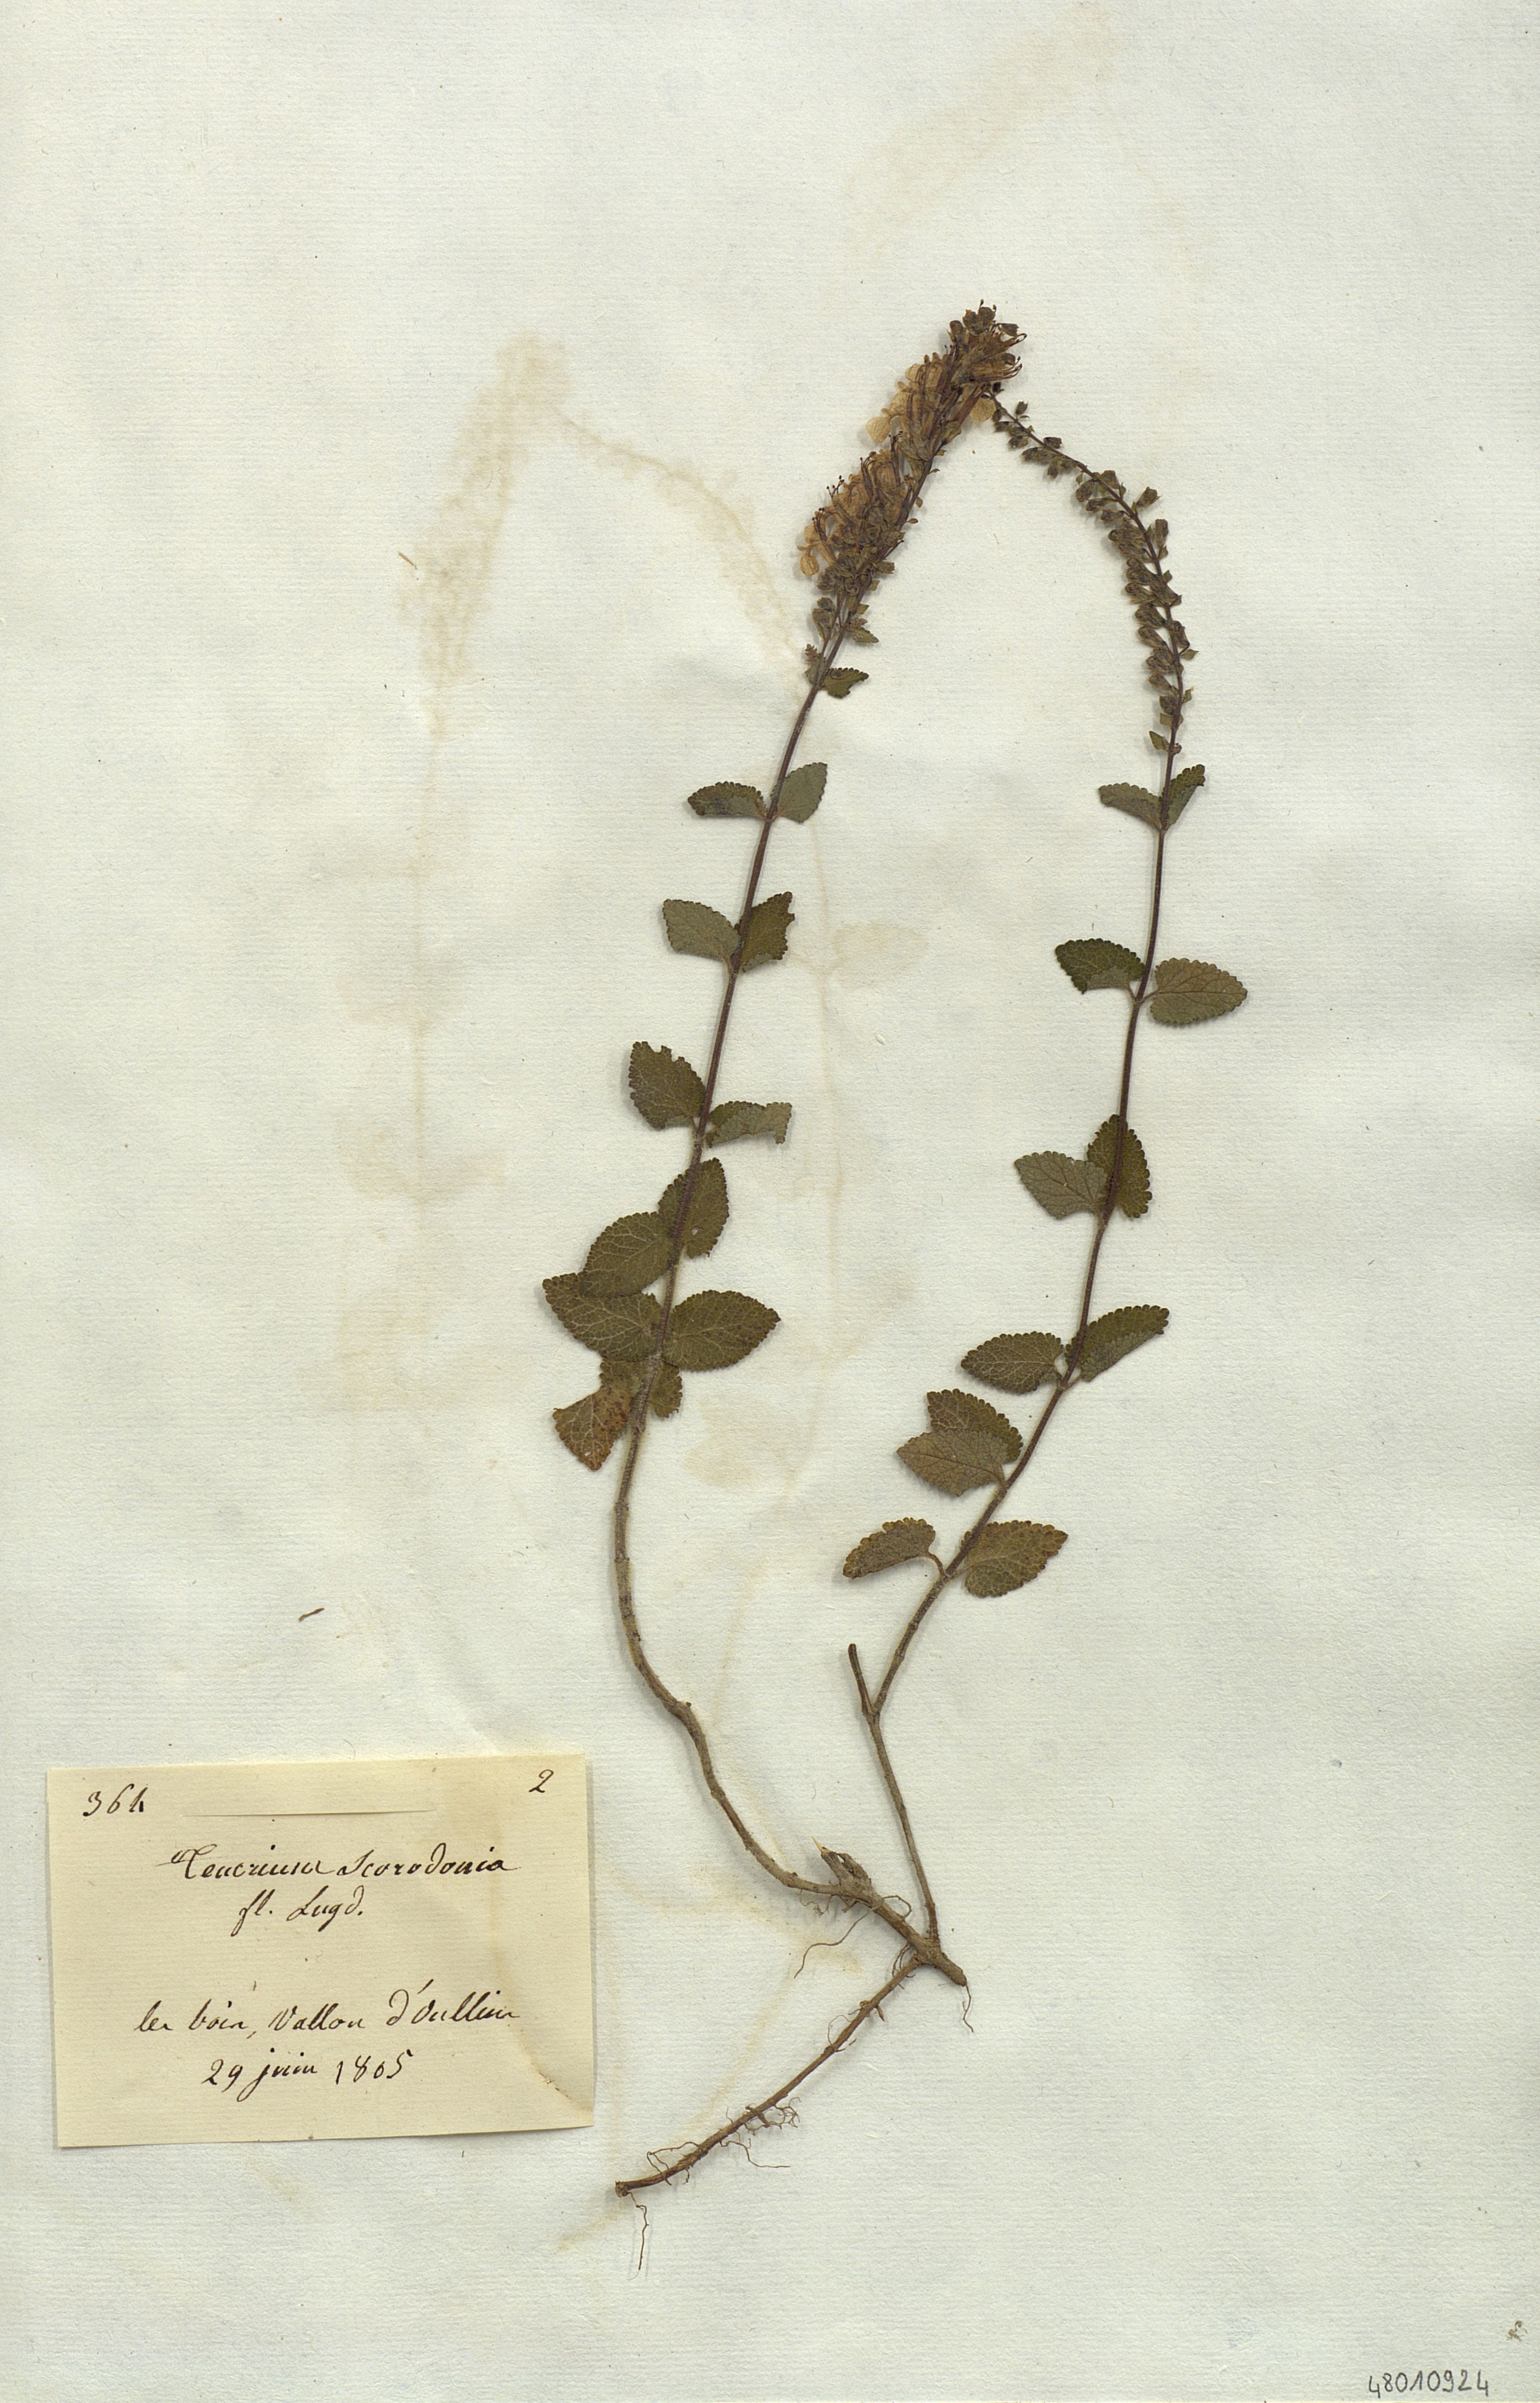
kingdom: Plantae
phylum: Tracheophyta
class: Magnoliopsida
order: Lamiales
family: Lamiaceae
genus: Teucrium
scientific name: Teucrium scorodonia
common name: Woodland germander
